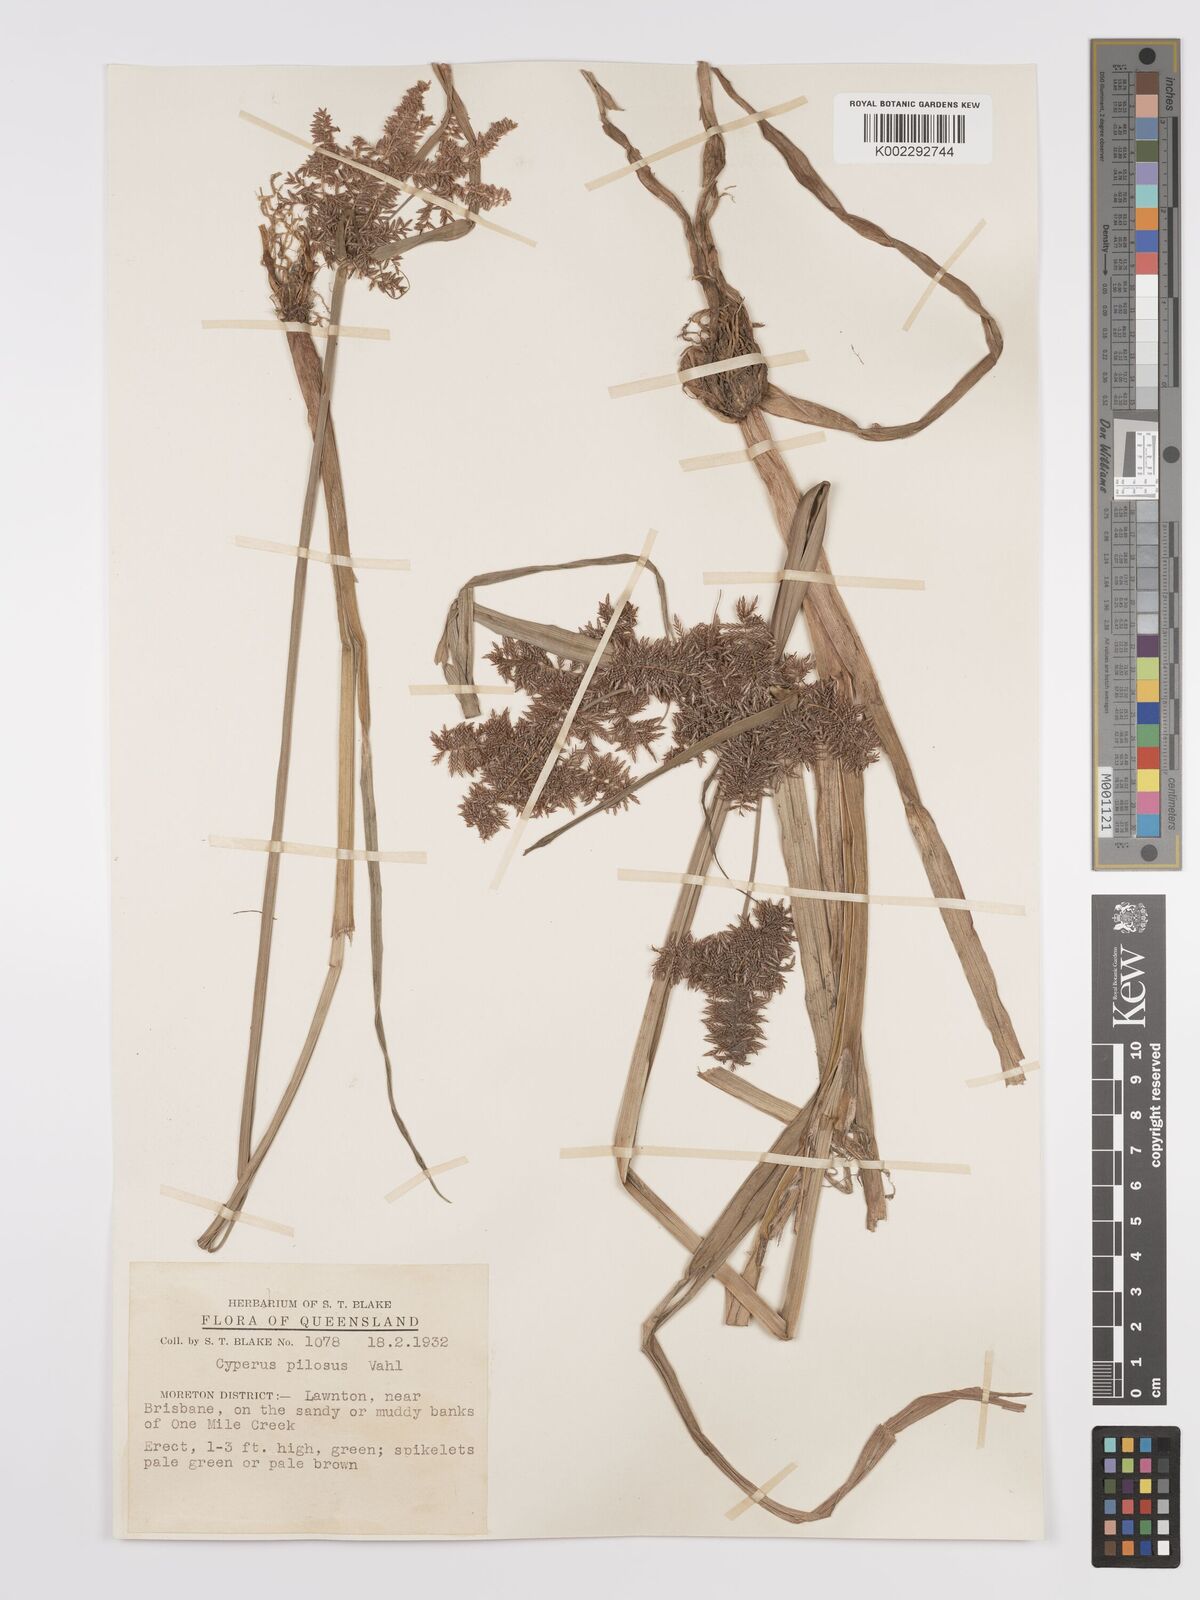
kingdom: Plantae
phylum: Tracheophyta
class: Liliopsida
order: Poales
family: Cyperaceae
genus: Cyperus
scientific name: Cyperus pilosus
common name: Fuzzy flatsedge
